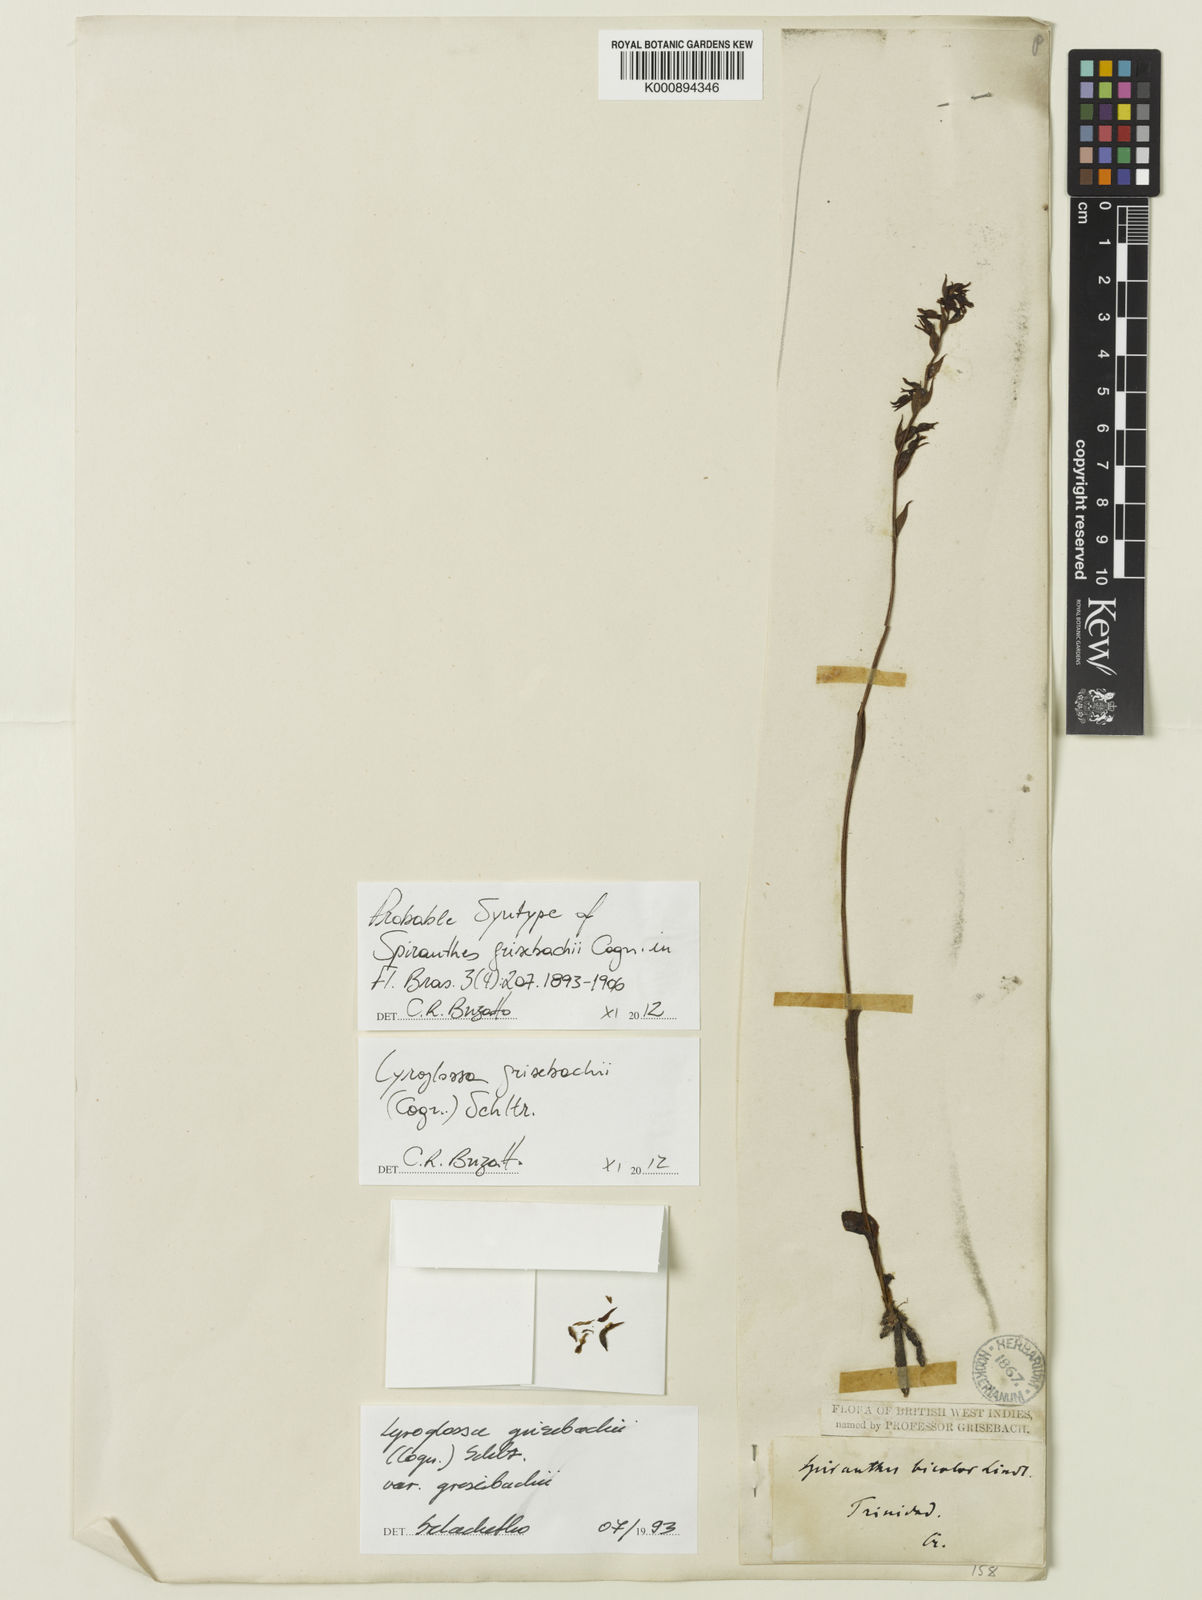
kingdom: Plantae
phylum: Tracheophyta
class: Liliopsida
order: Asparagales
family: Orchidaceae
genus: Lyroglossa
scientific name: Lyroglossa grisebachii
